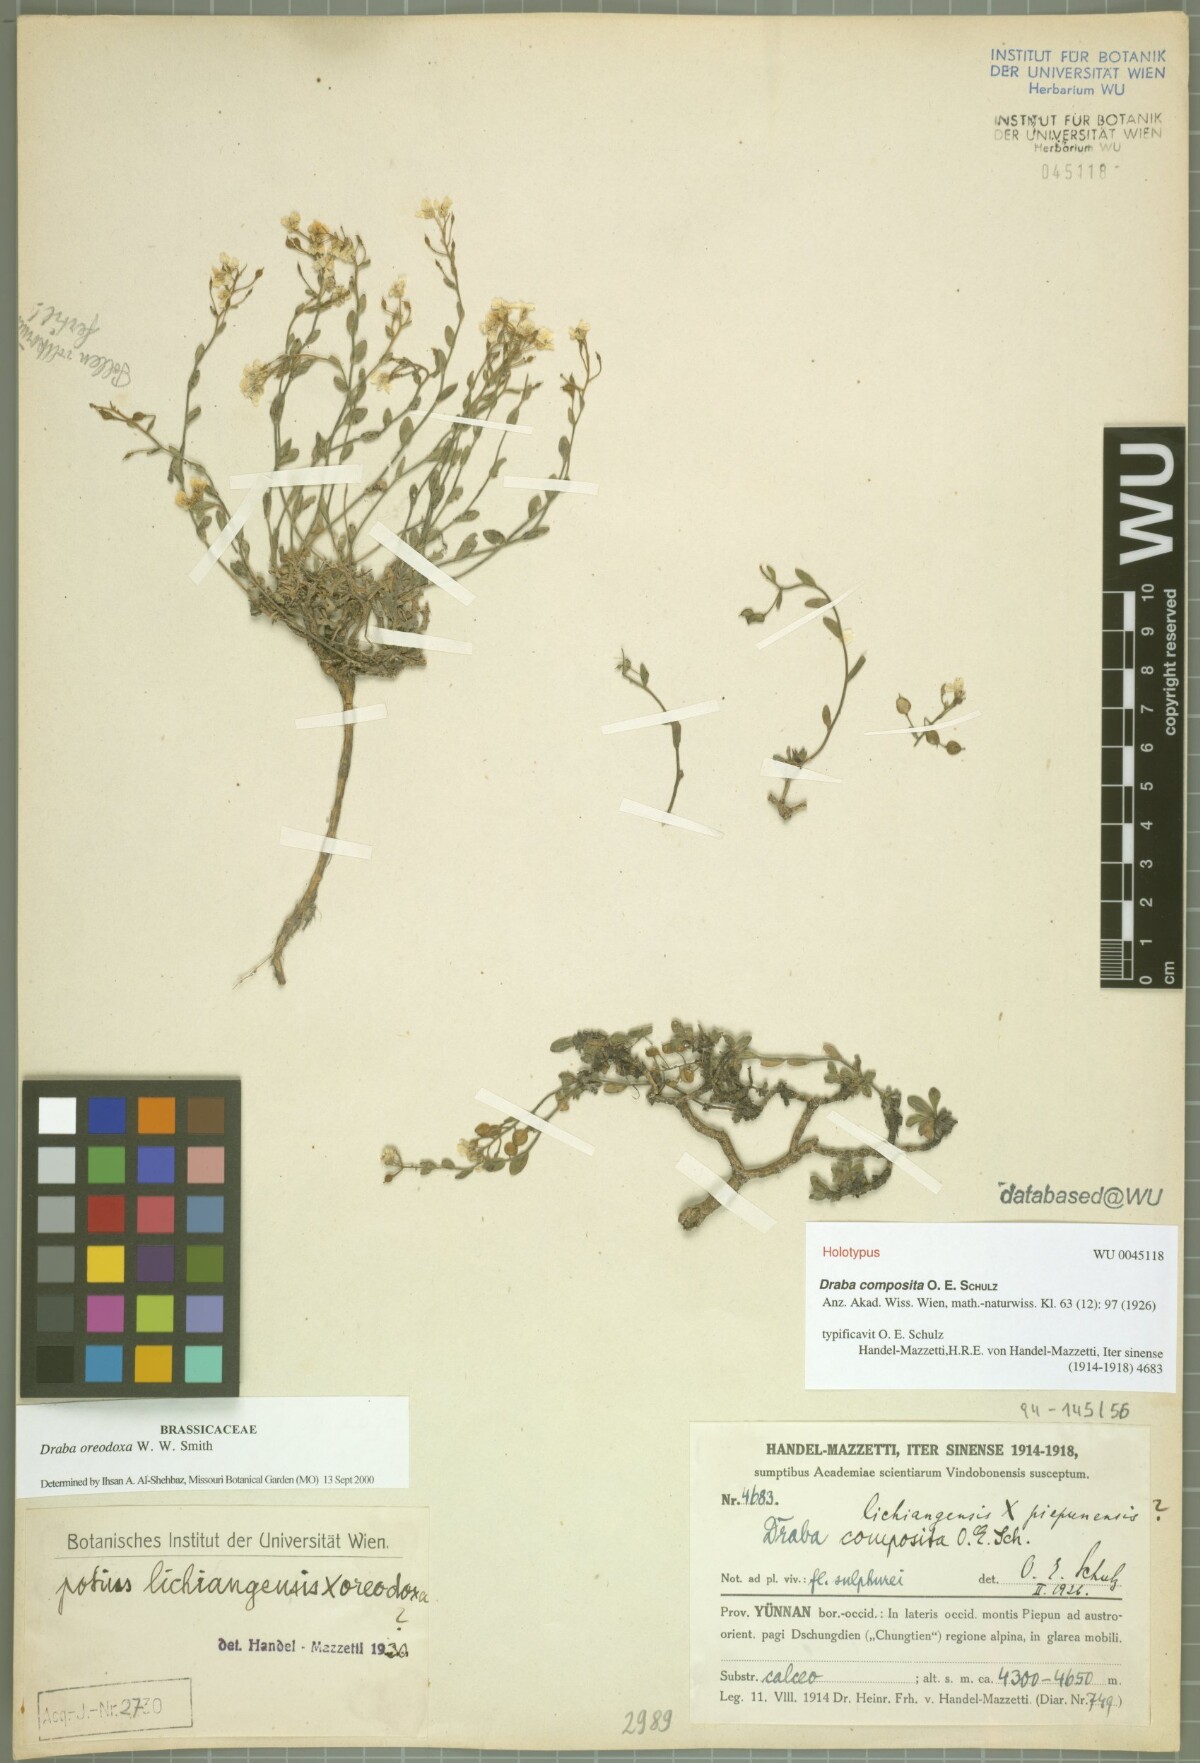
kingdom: Plantae
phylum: Tracheophyta
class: Magnoliopsida
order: Brassicales
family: Brassicaceae
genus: Draba
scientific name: Draba oreodoxa
